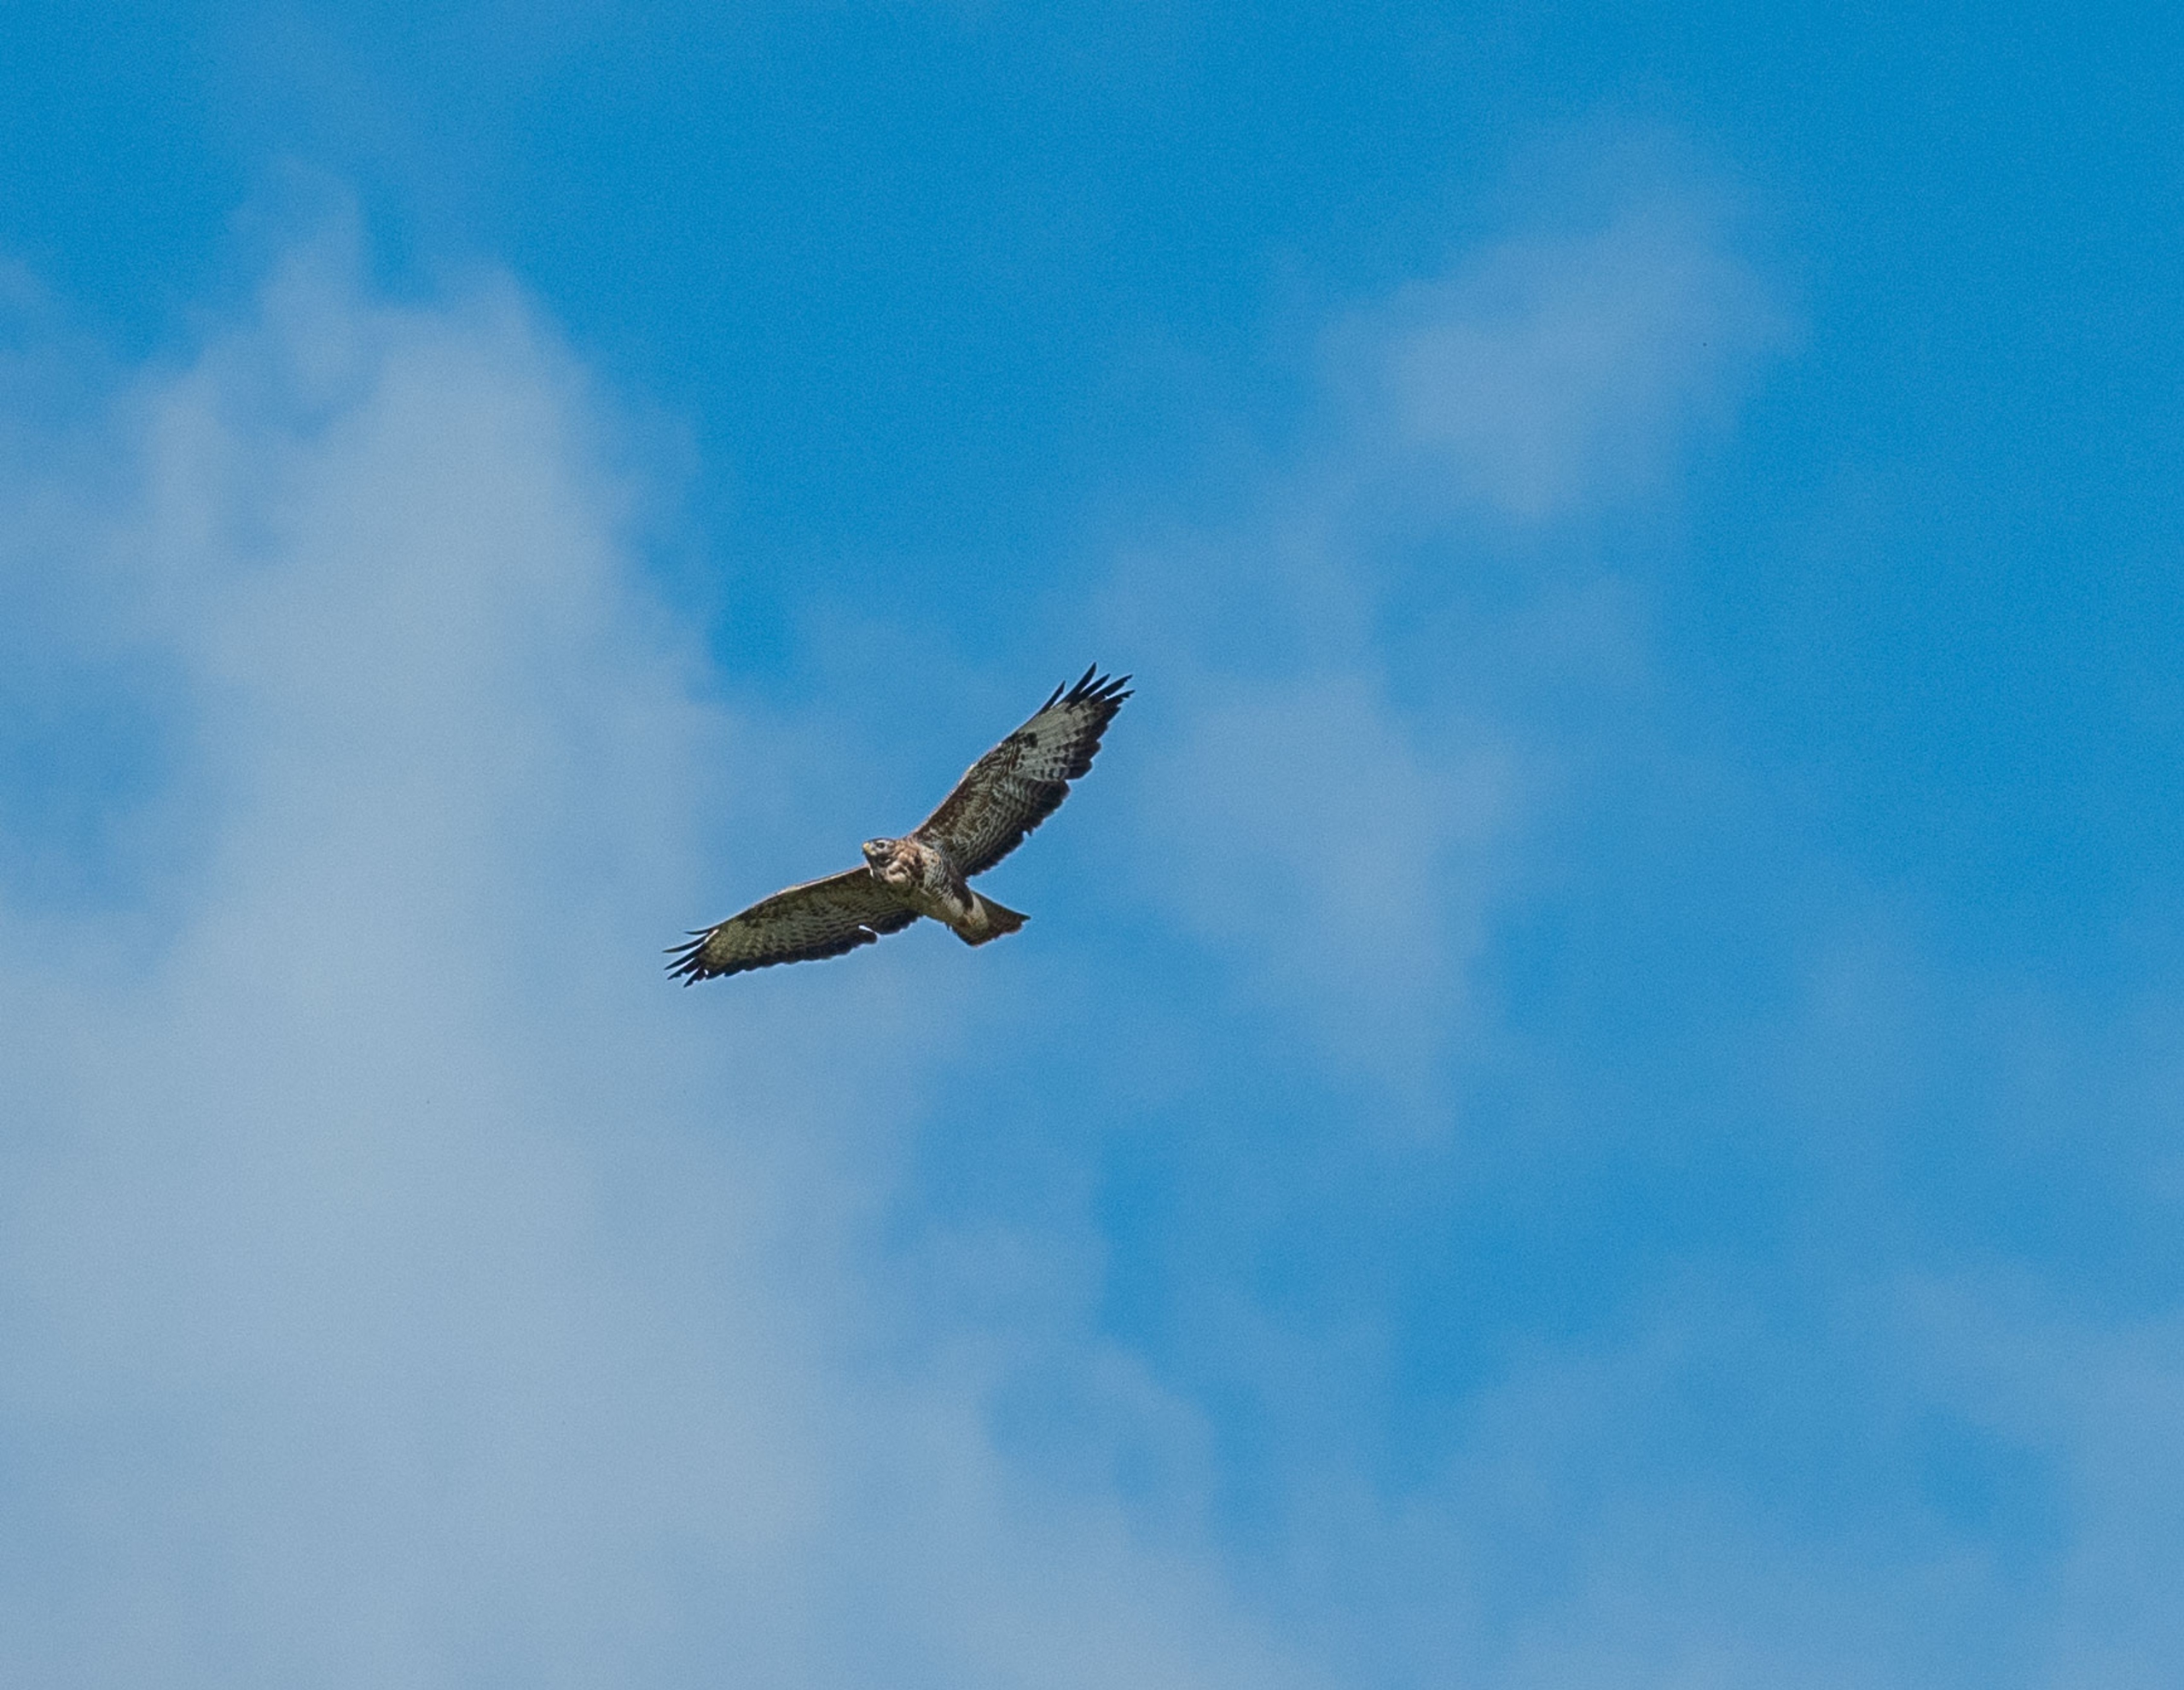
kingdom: Animalia
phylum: Chordata
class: Aves
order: Accipitriformes
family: Accipitridae
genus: Buteo
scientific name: Buteo buteo
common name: Musvåge
